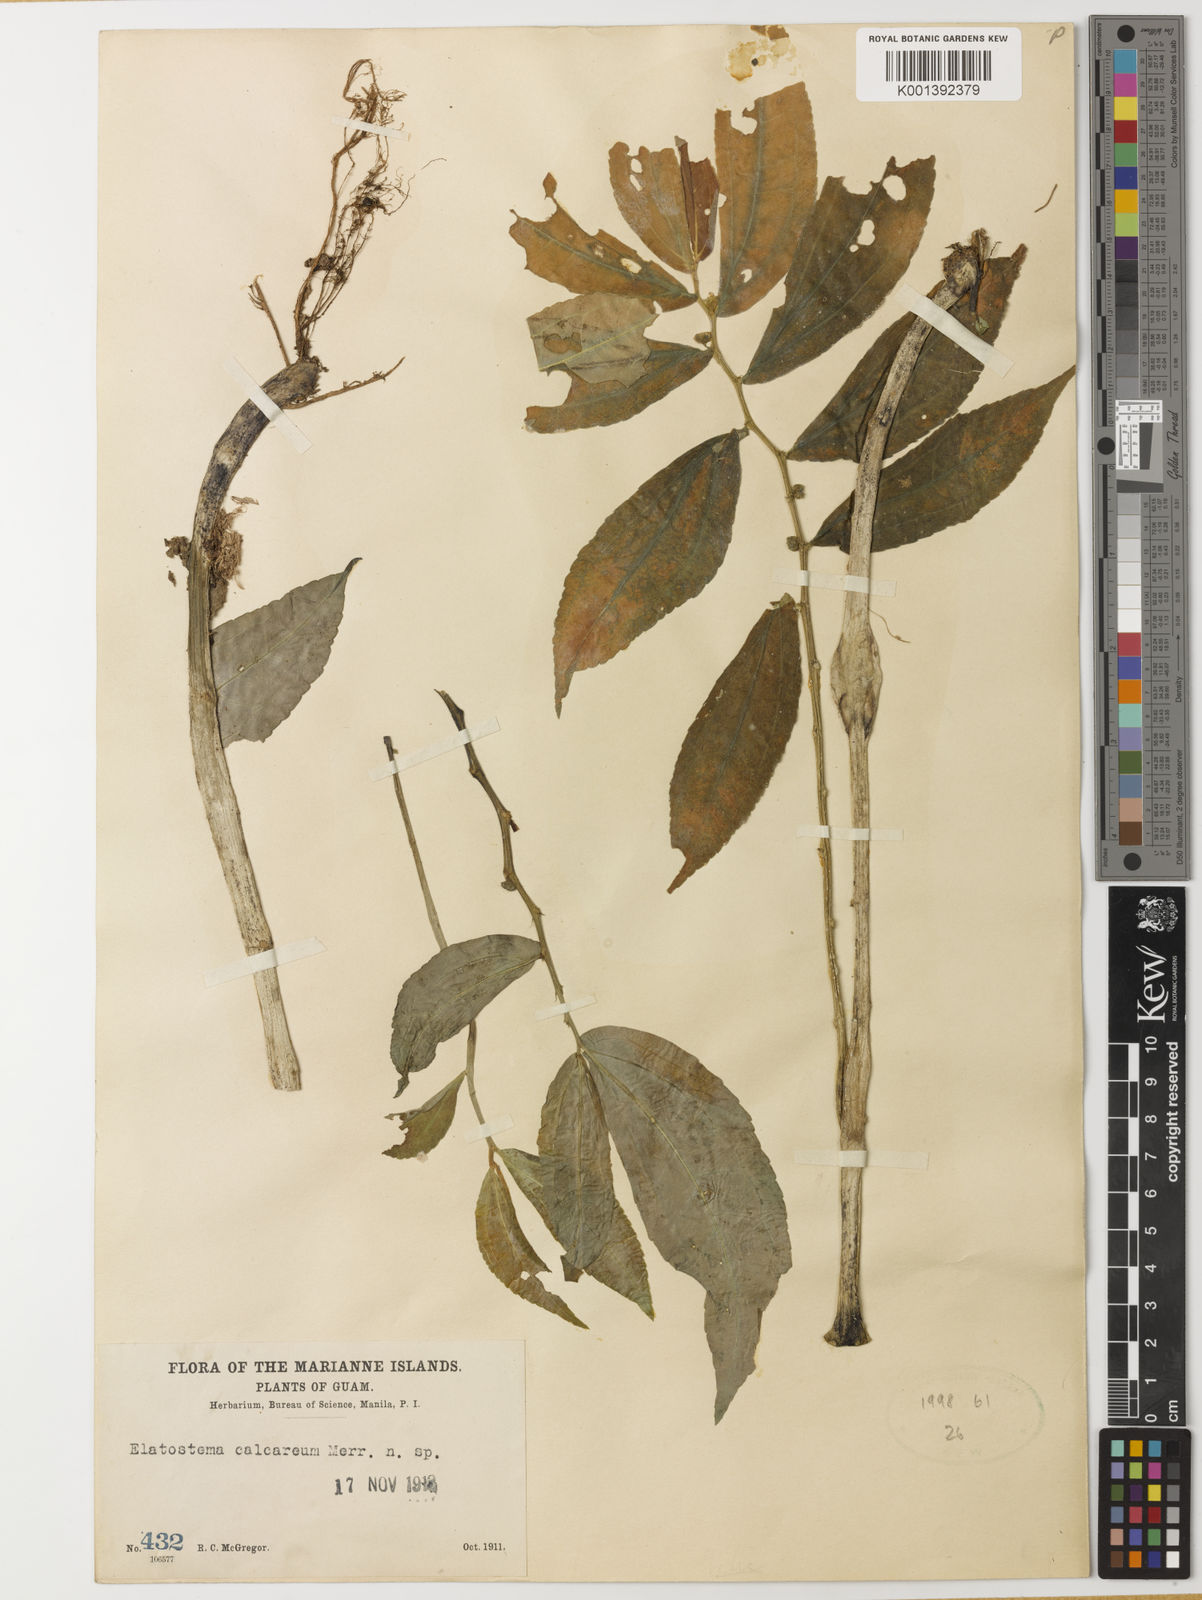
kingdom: Plantae
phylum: Tracheophyta
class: Magnoliopsida
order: Rosales
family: Urticaceae
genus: Elatostema
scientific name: Elatostema calcareum
